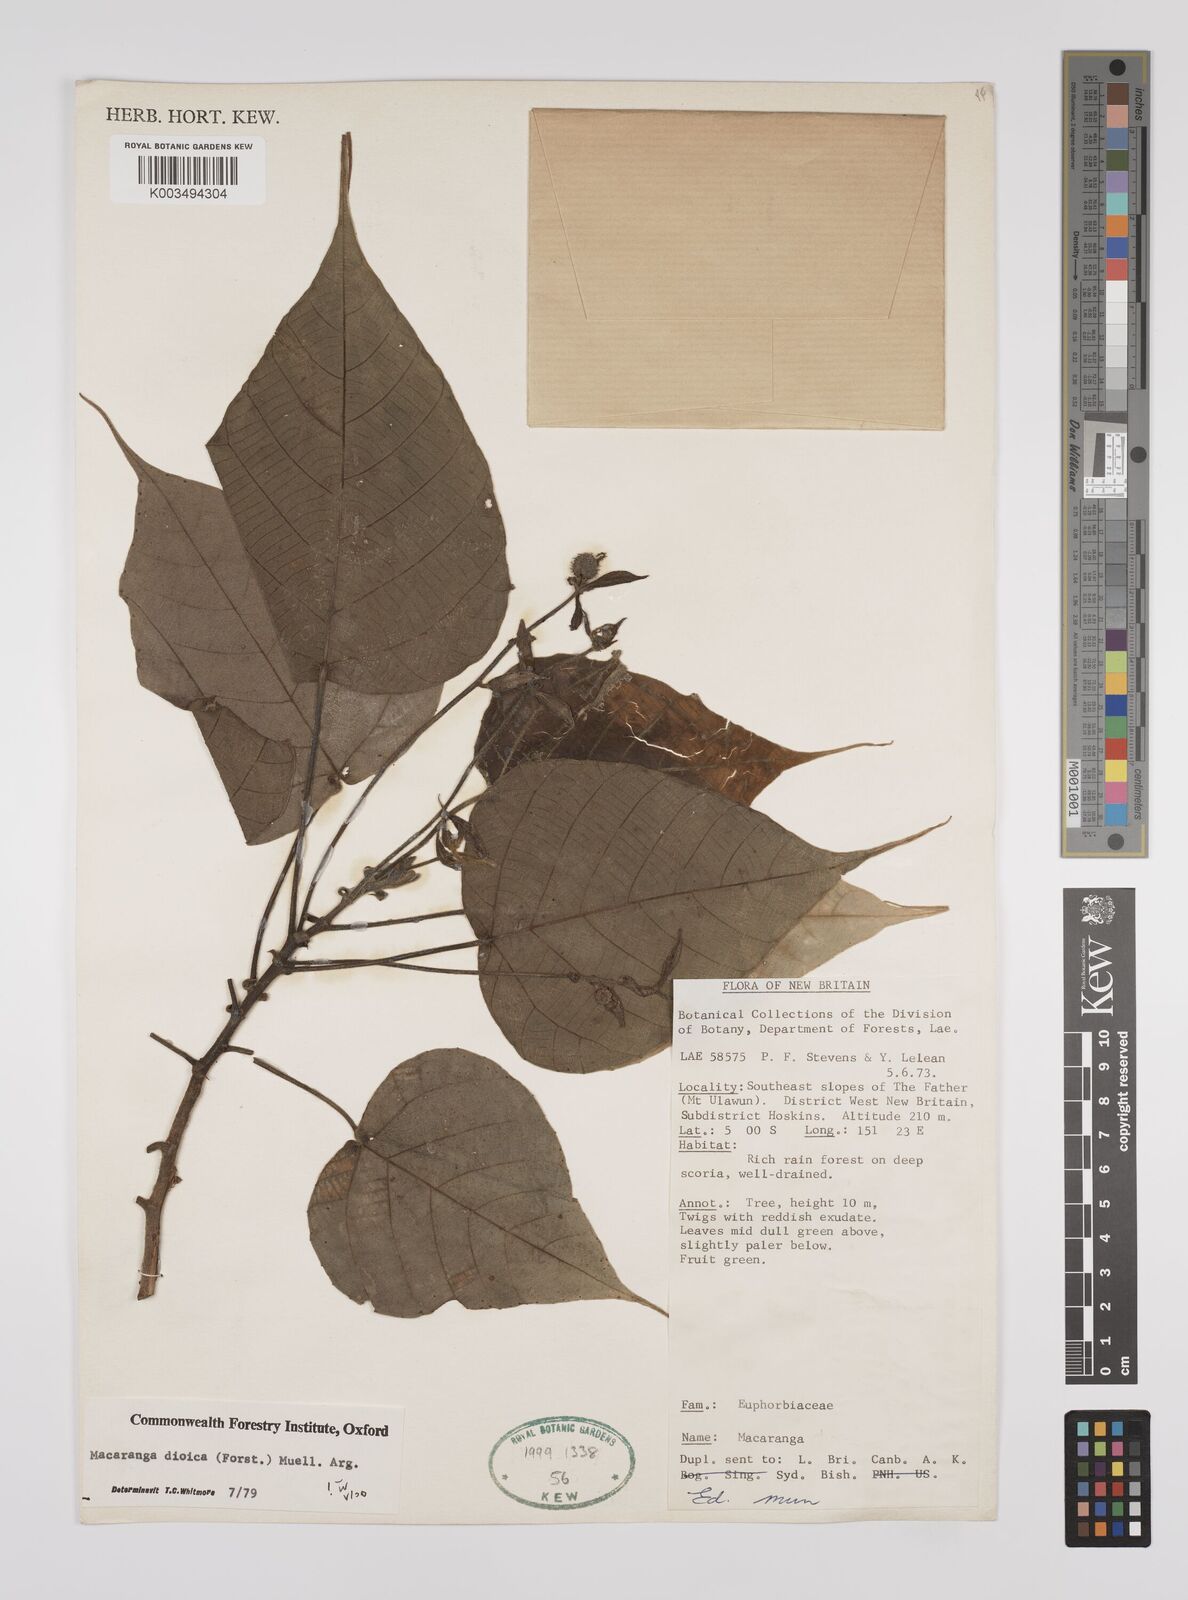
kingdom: Plantae
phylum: Tracheophyta
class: Magnoliopsida
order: Malpighiales
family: Euphorbiaceae
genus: Macaranga
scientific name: Macaranga dioica
